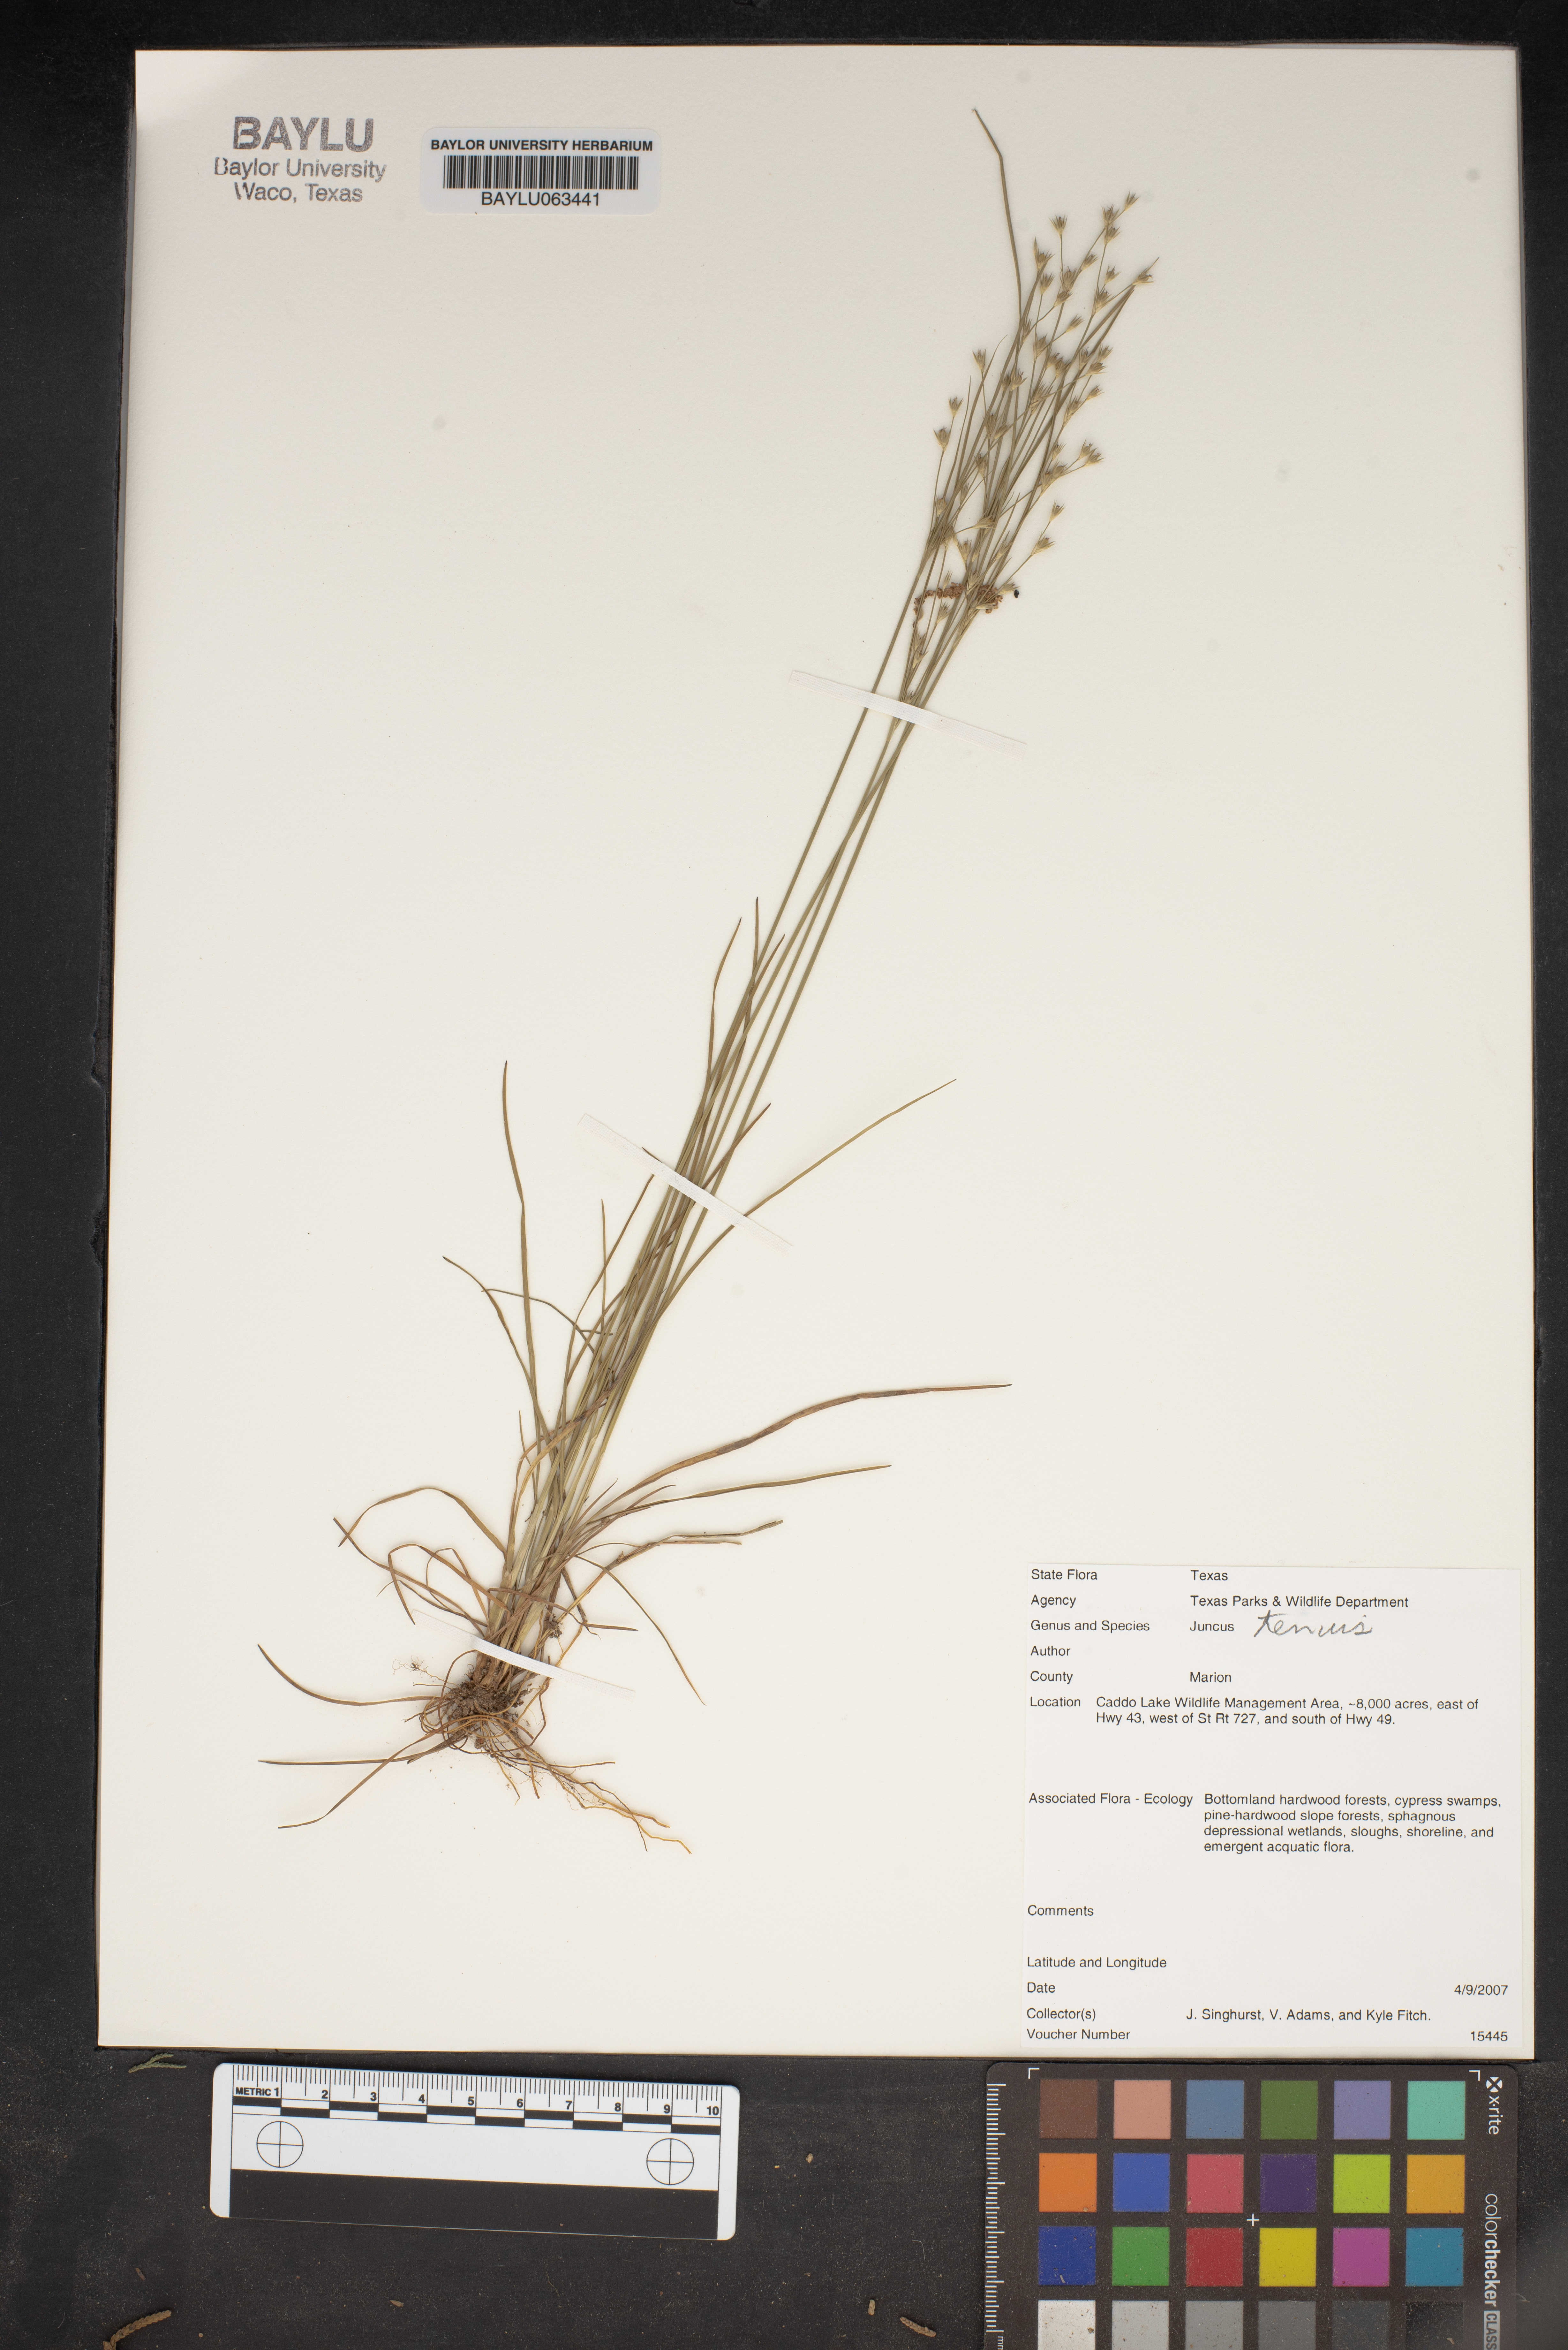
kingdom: Plantae
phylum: Tracheophyta
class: Liliopsida
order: Poales
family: Juncaceae
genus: Juncus
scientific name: Juncus tenuis
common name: Slender rush
